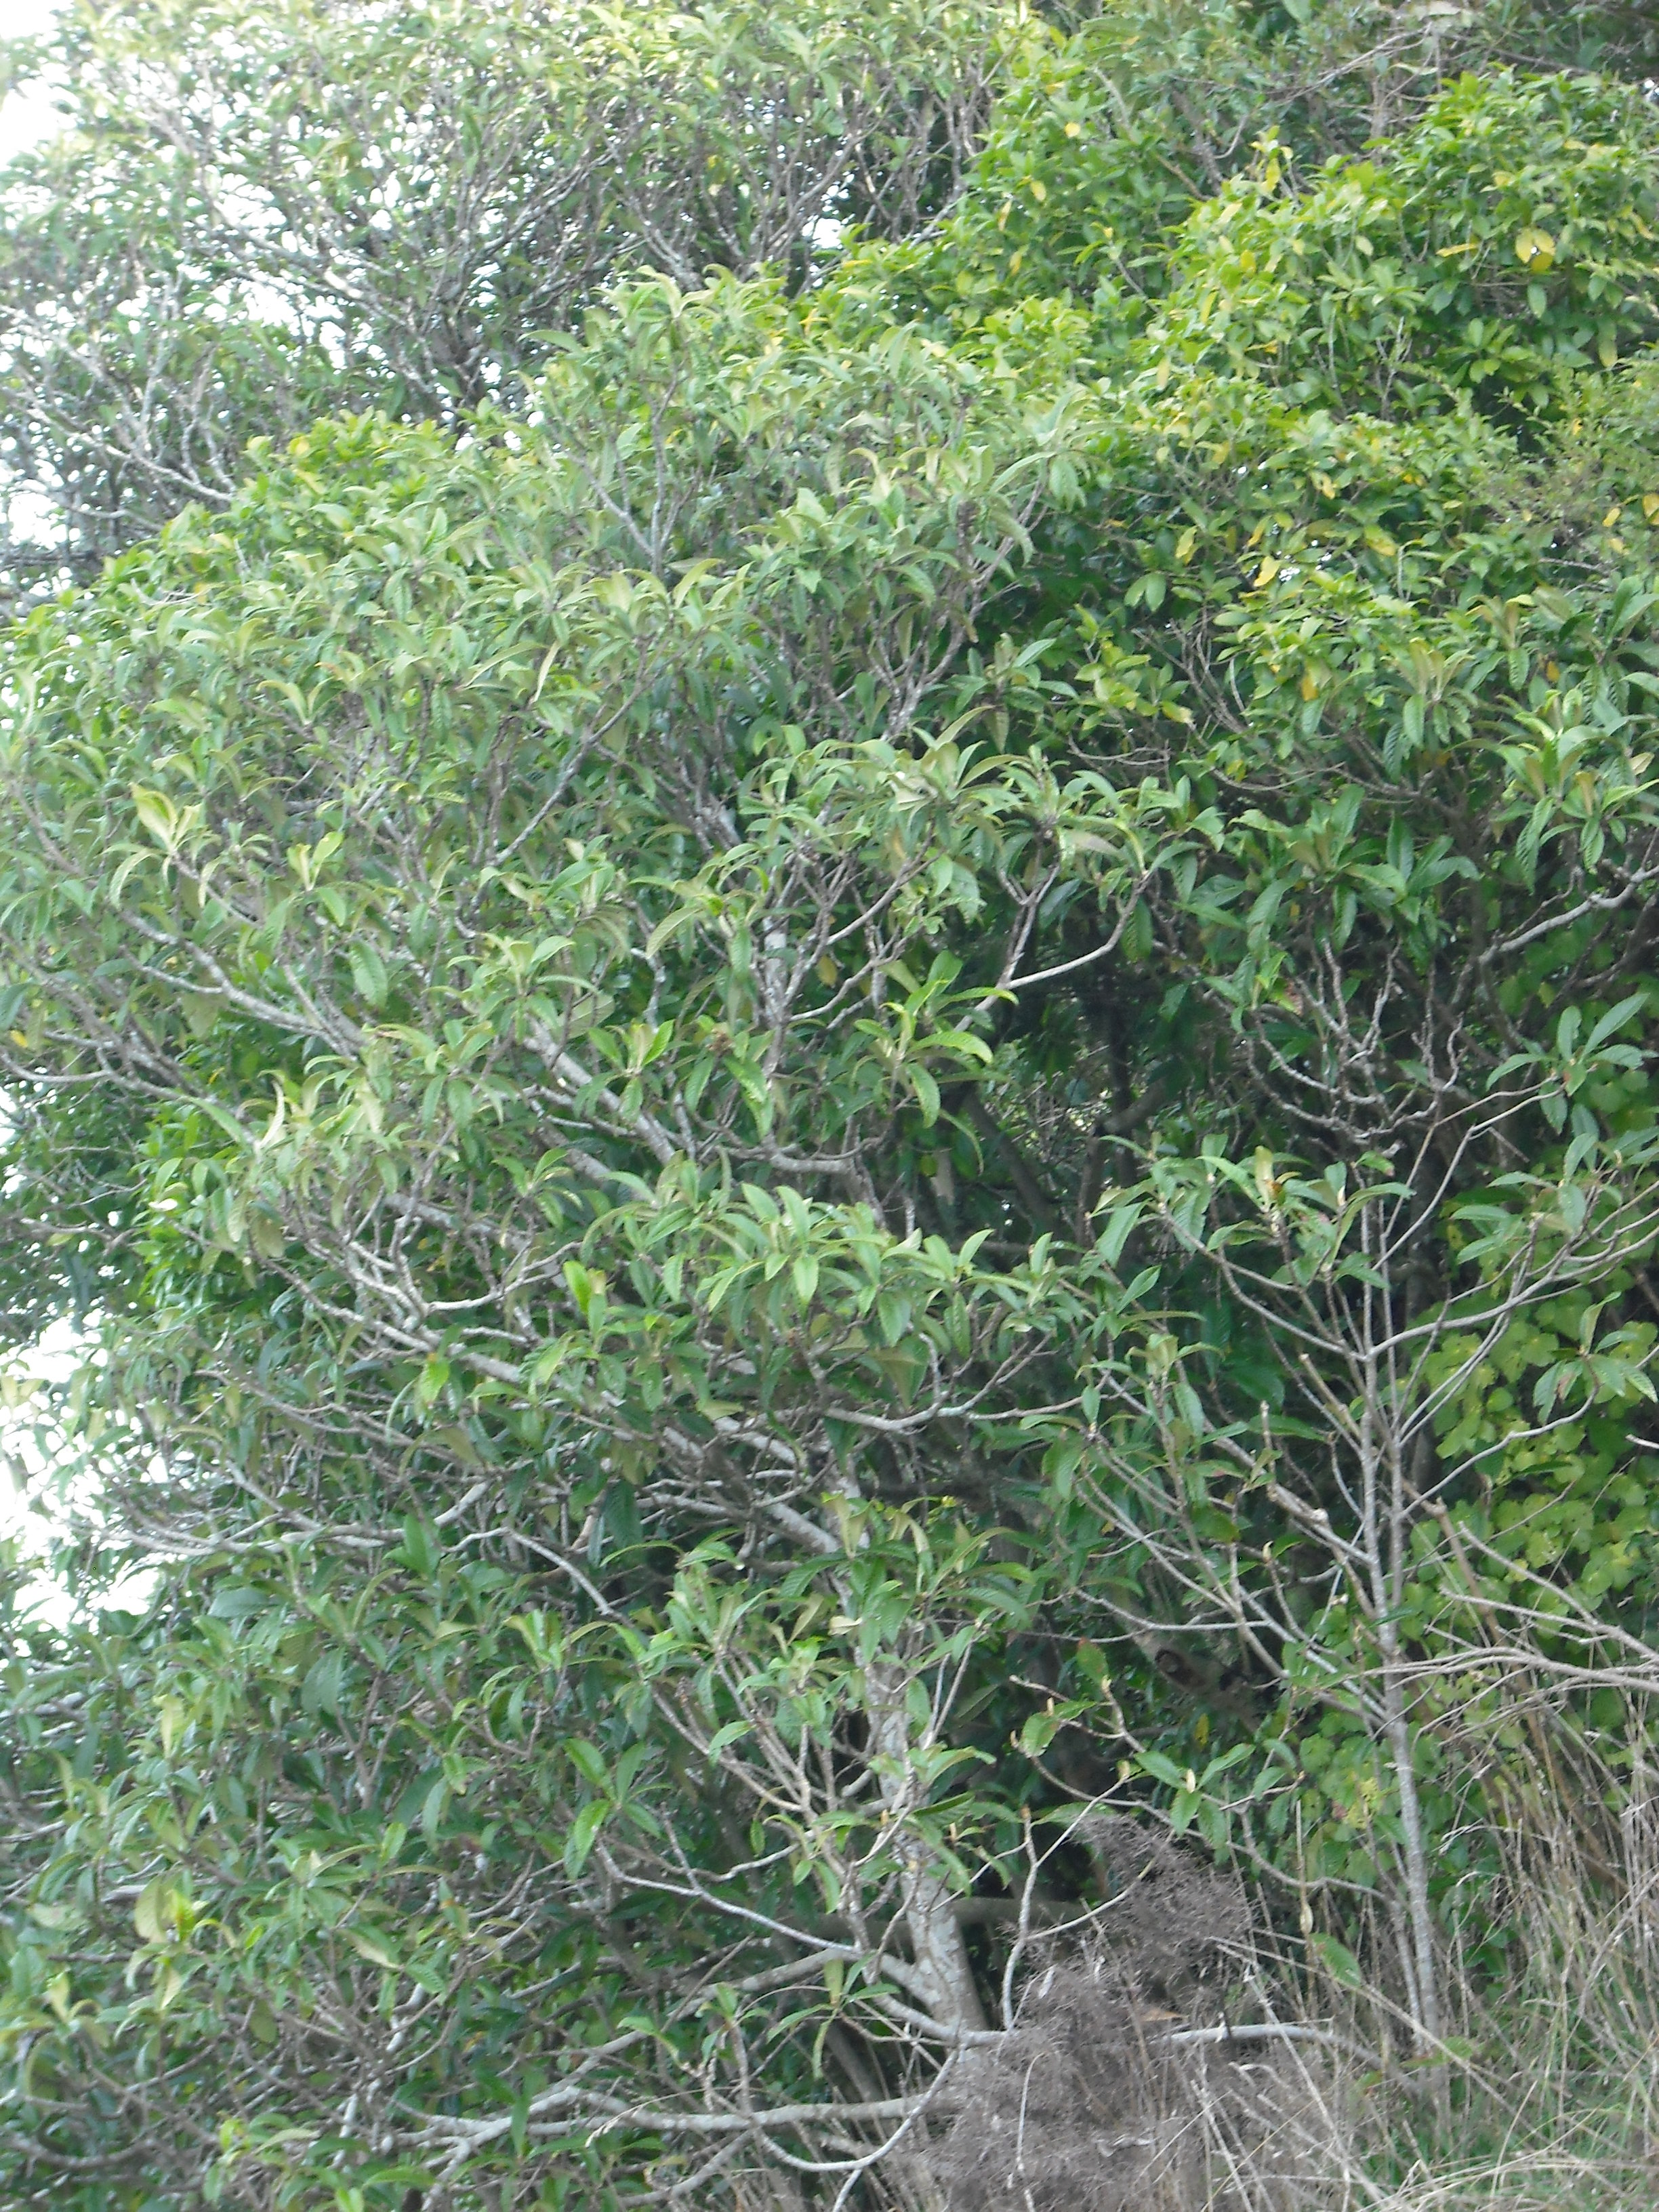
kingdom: Plantae
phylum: Tracheophyta
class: Magnoliopsida
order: Rosales
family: Rosaceae
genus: Rhaphiolepis
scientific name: Rhaphiolepis bibas
